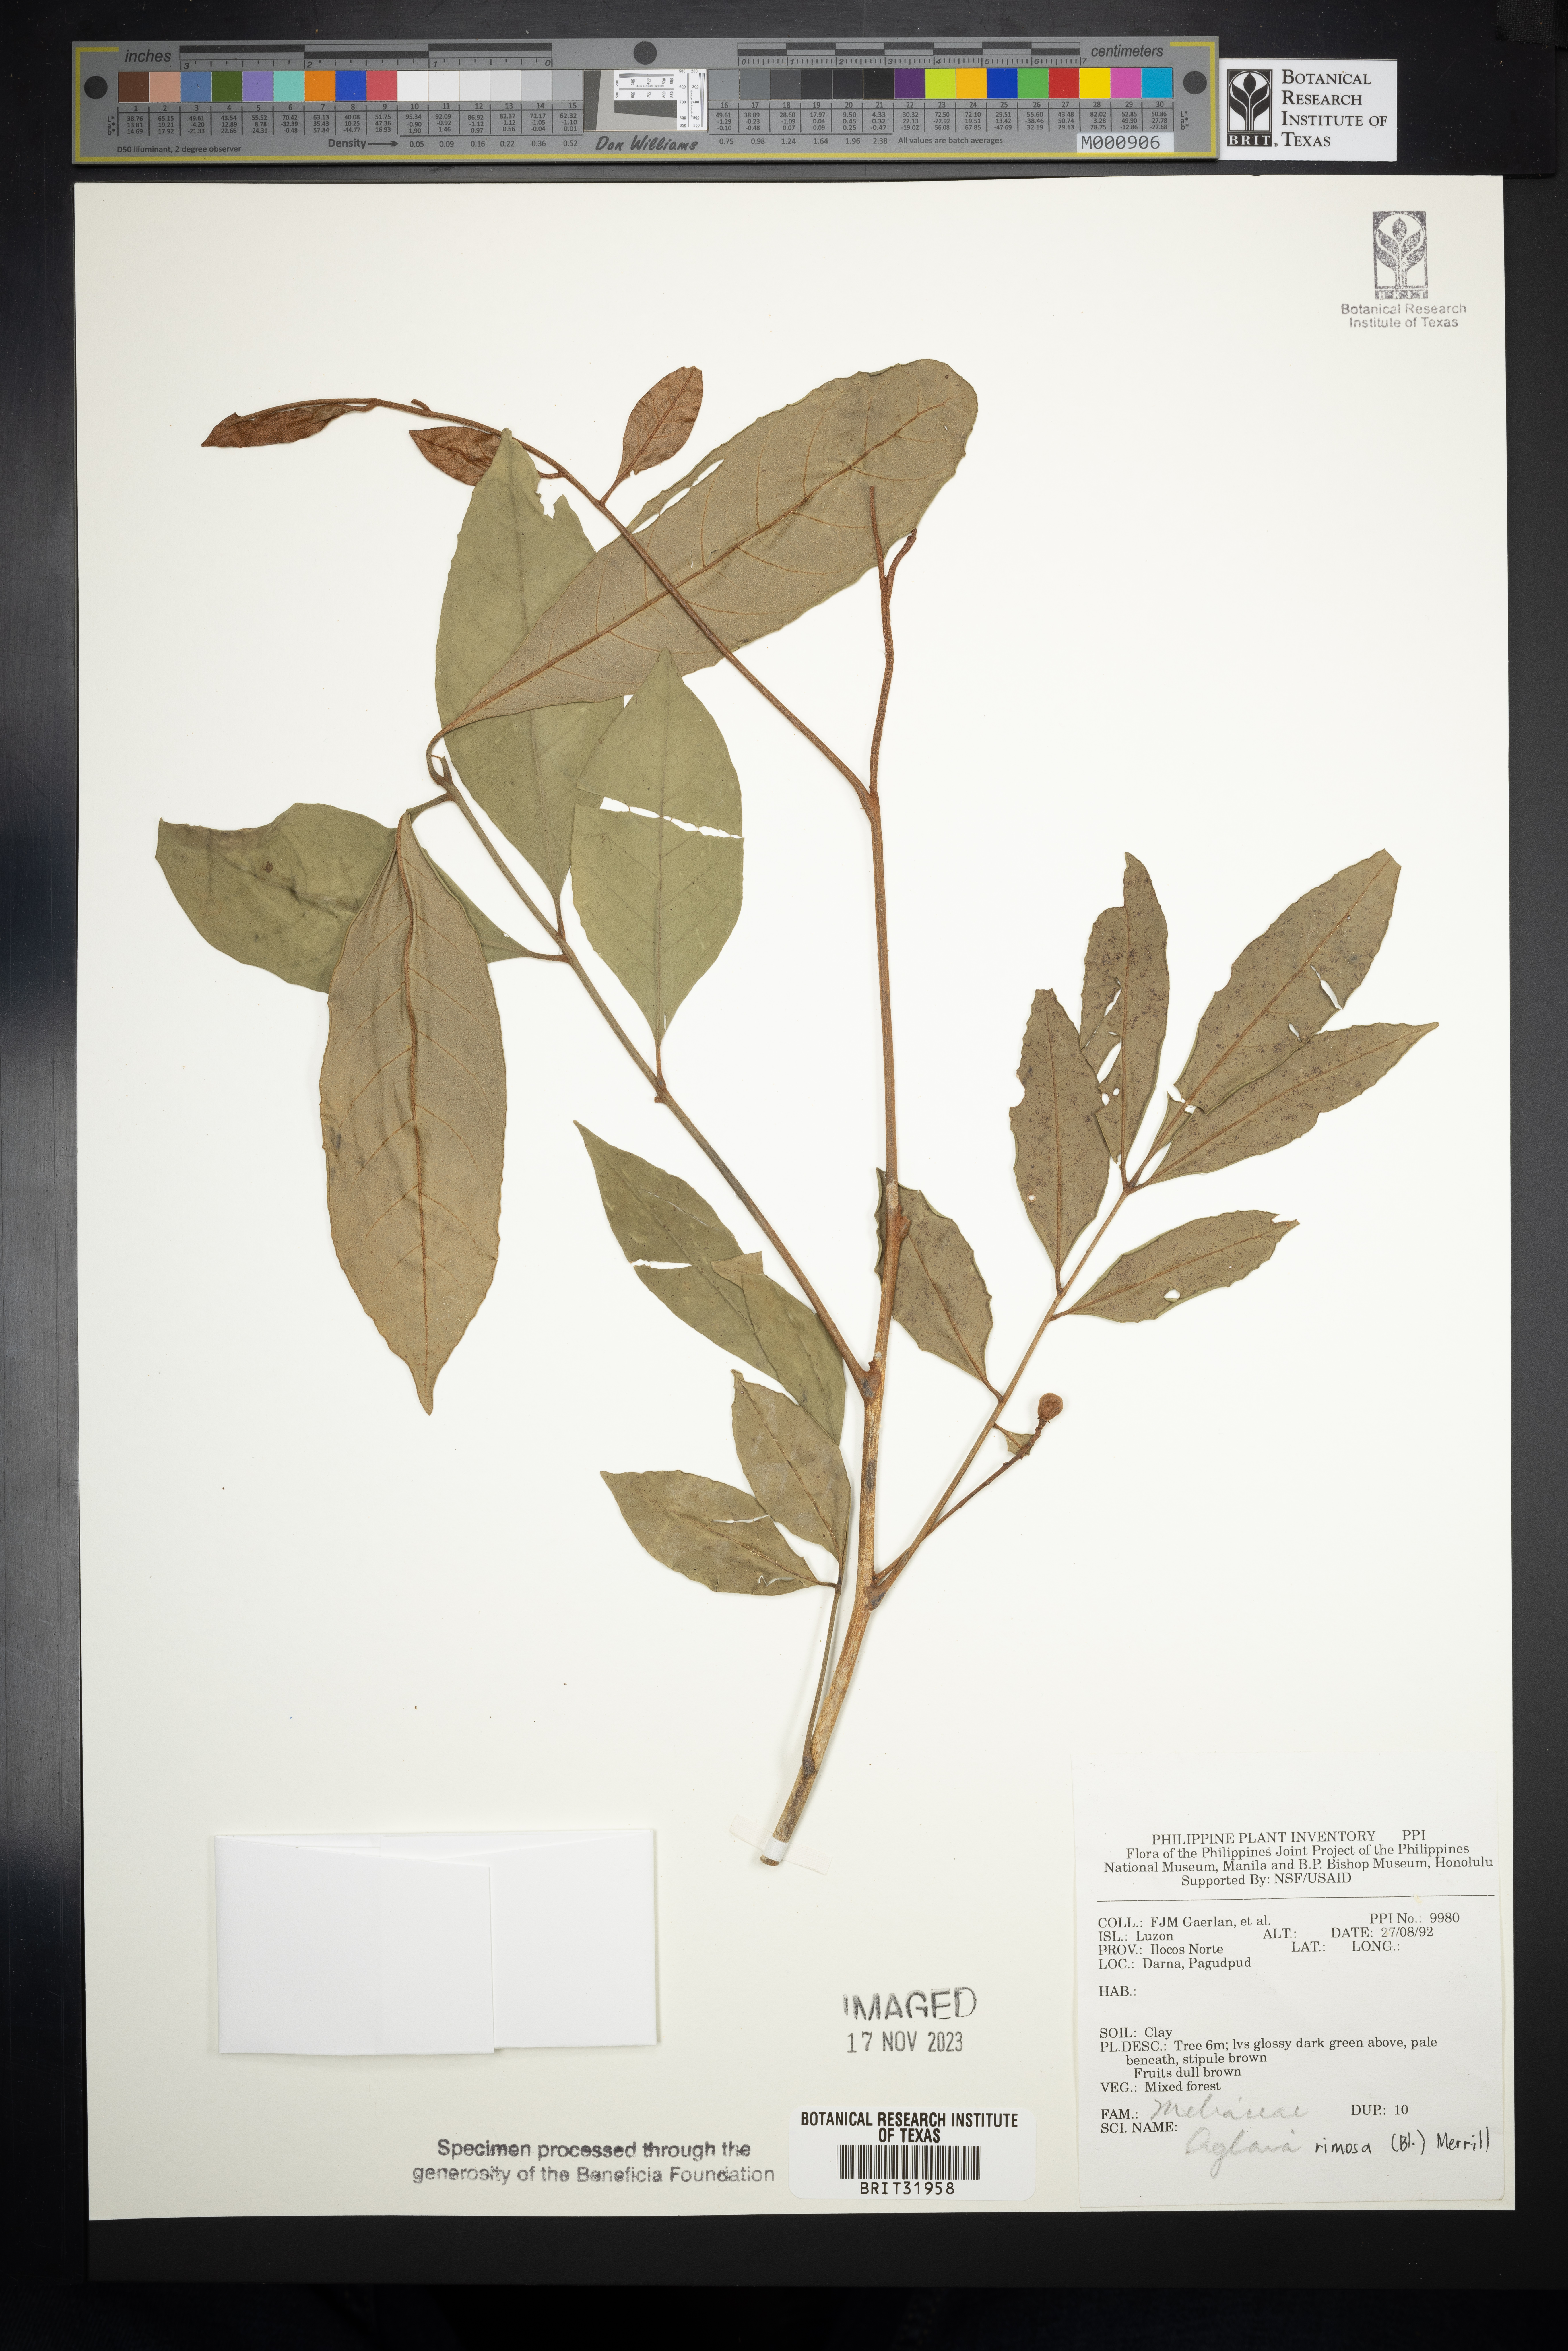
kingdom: Plantae
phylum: Tracheophyta
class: Magnoliopsida
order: Sapindales
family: Meliaceae
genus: Aglaia
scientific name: Aglaia rimosa
